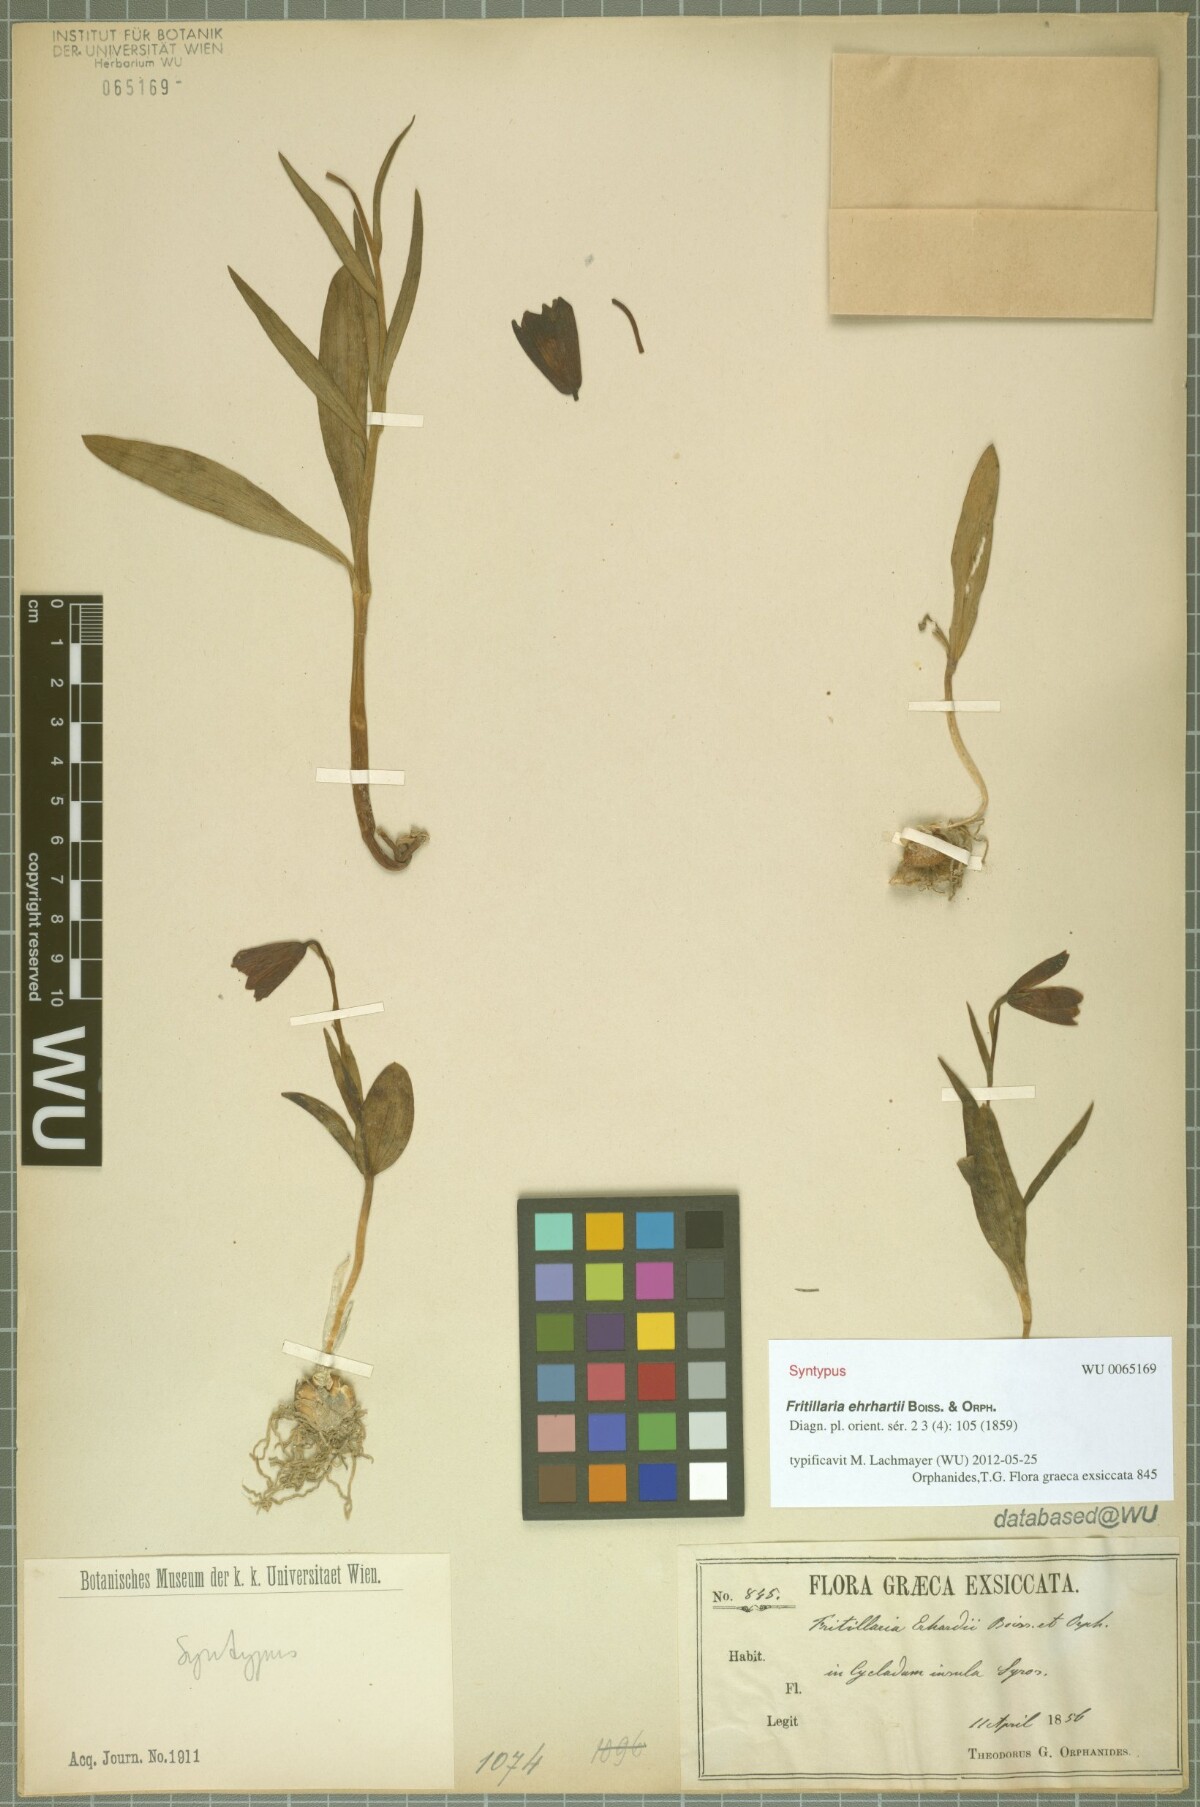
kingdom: Plantae
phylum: Tracheophyta
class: Liliopsida
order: Liliales
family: Liliaceae
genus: Fritillaria
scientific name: Fritillaria ehrhartii
